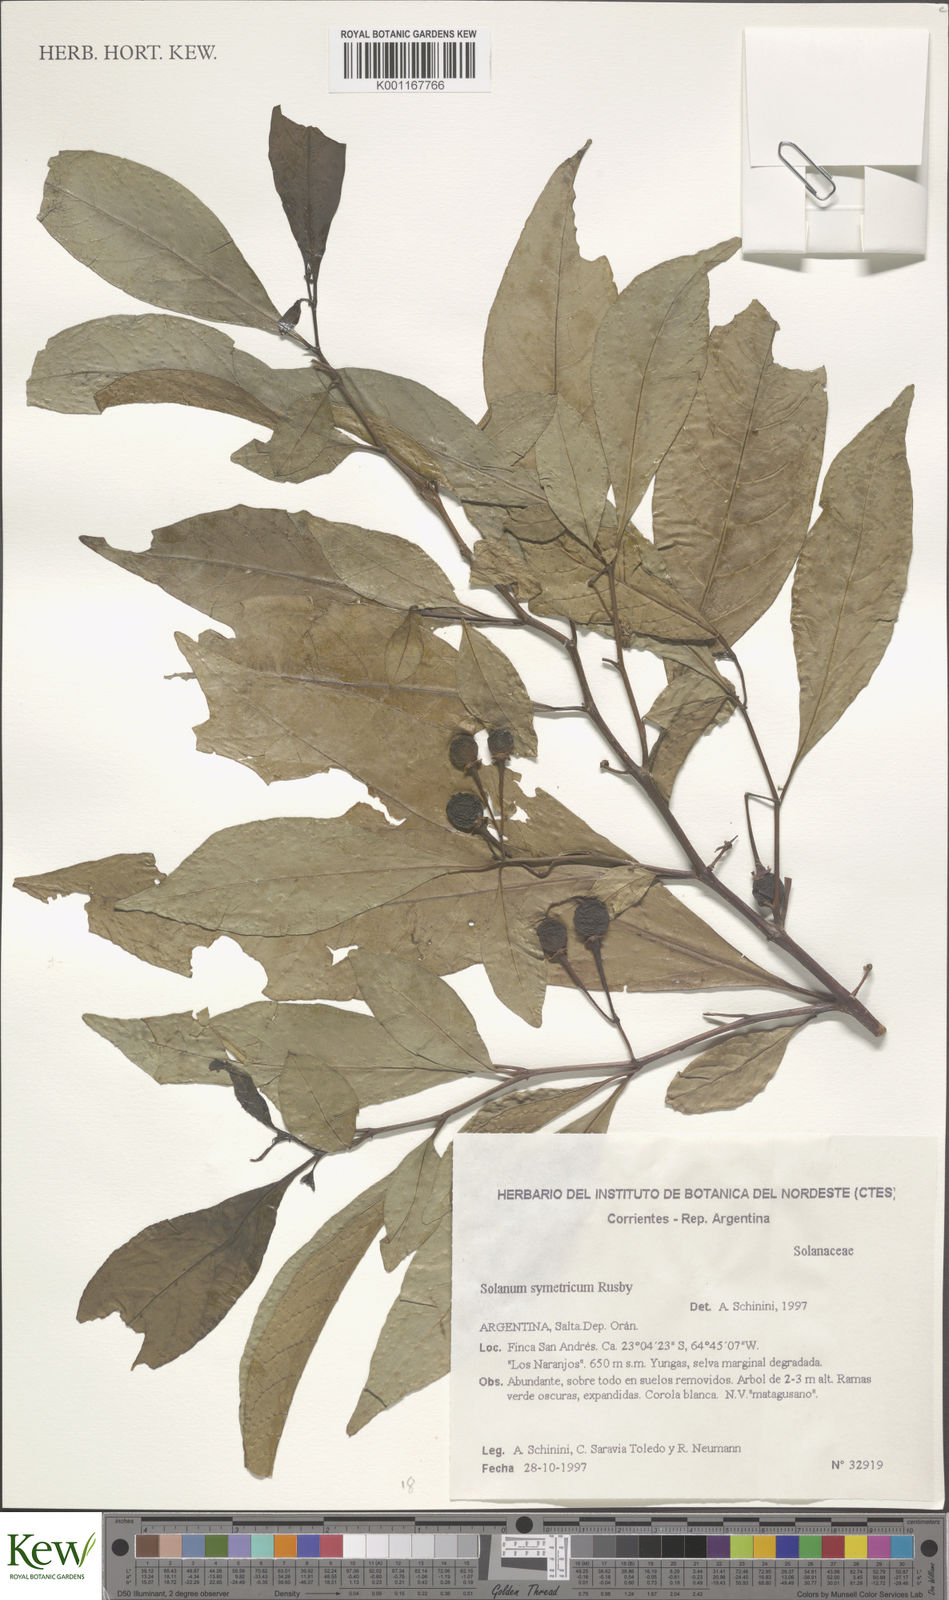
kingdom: Plantae
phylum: Tracheophyta
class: Magnoliopsida
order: Solanales
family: Solanaceae
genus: Solanum
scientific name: Solanum symmetricum
